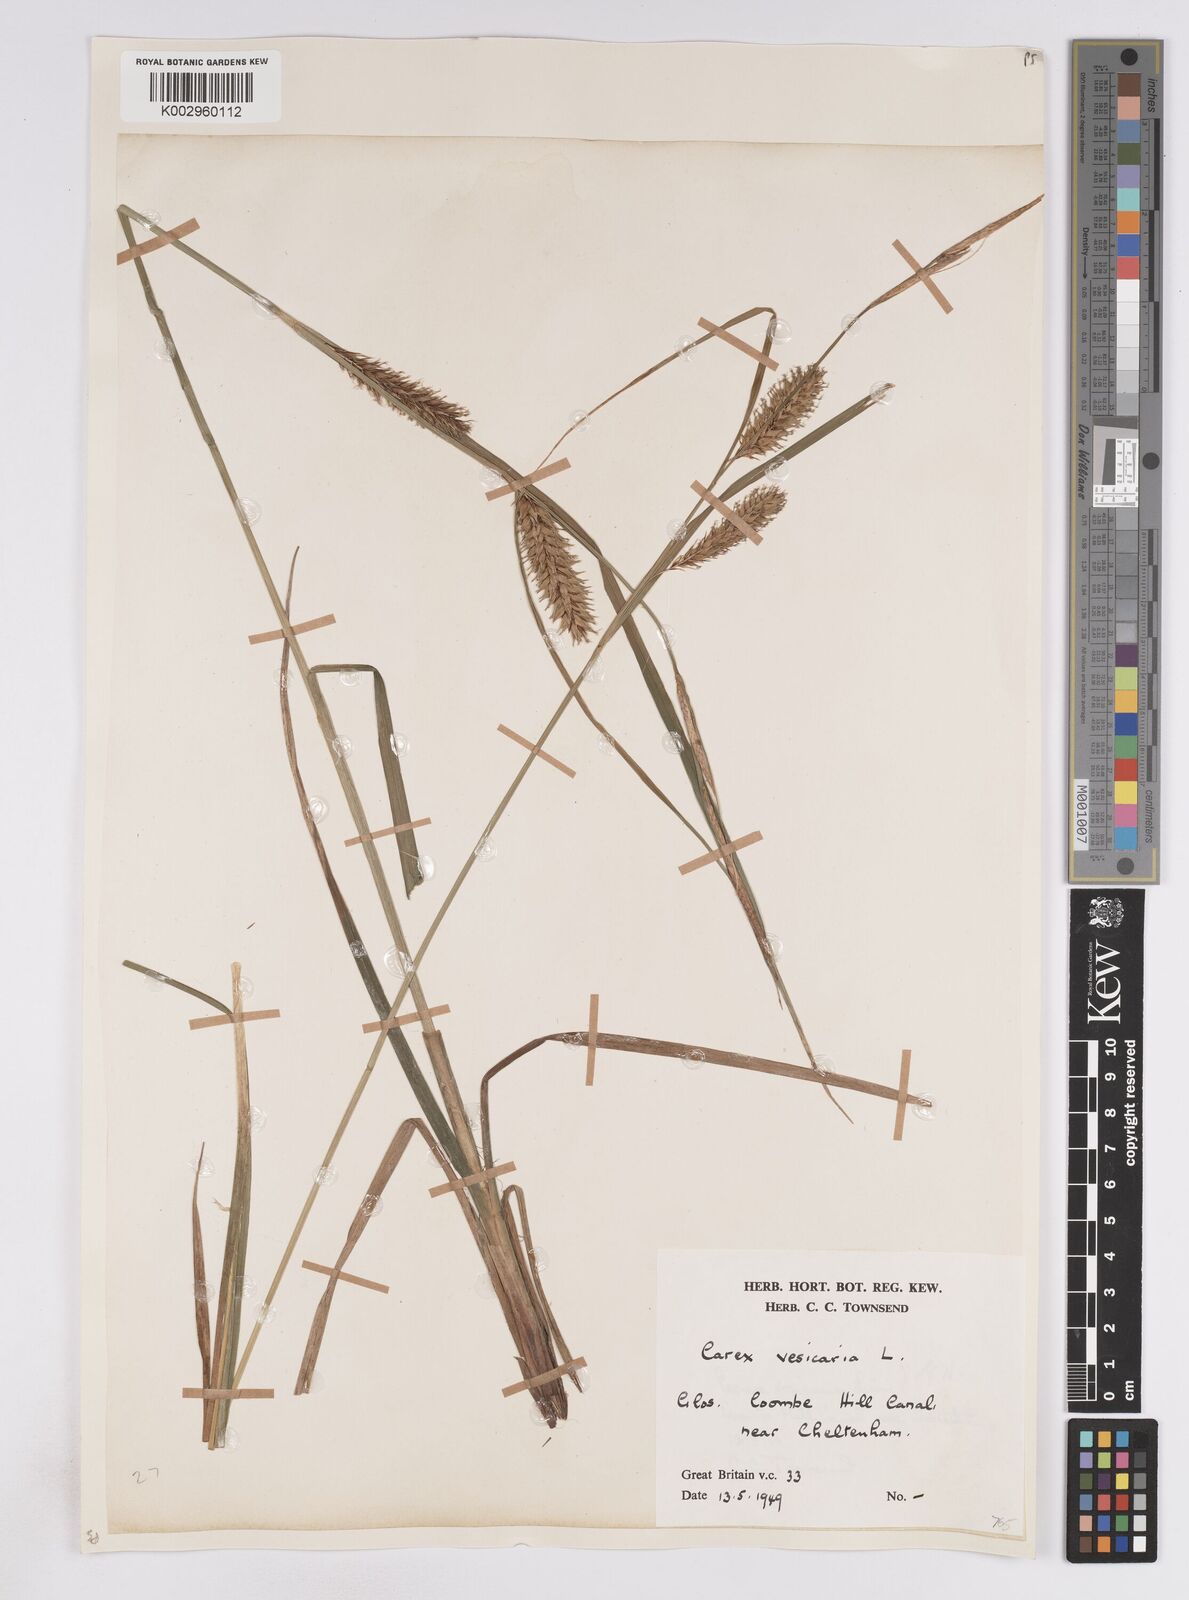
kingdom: Plantae
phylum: Tracheophyta
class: Liliopsida
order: Poales
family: Cyperaceae
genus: Carex
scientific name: Carex vesicaria
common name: Bladder-sedge
